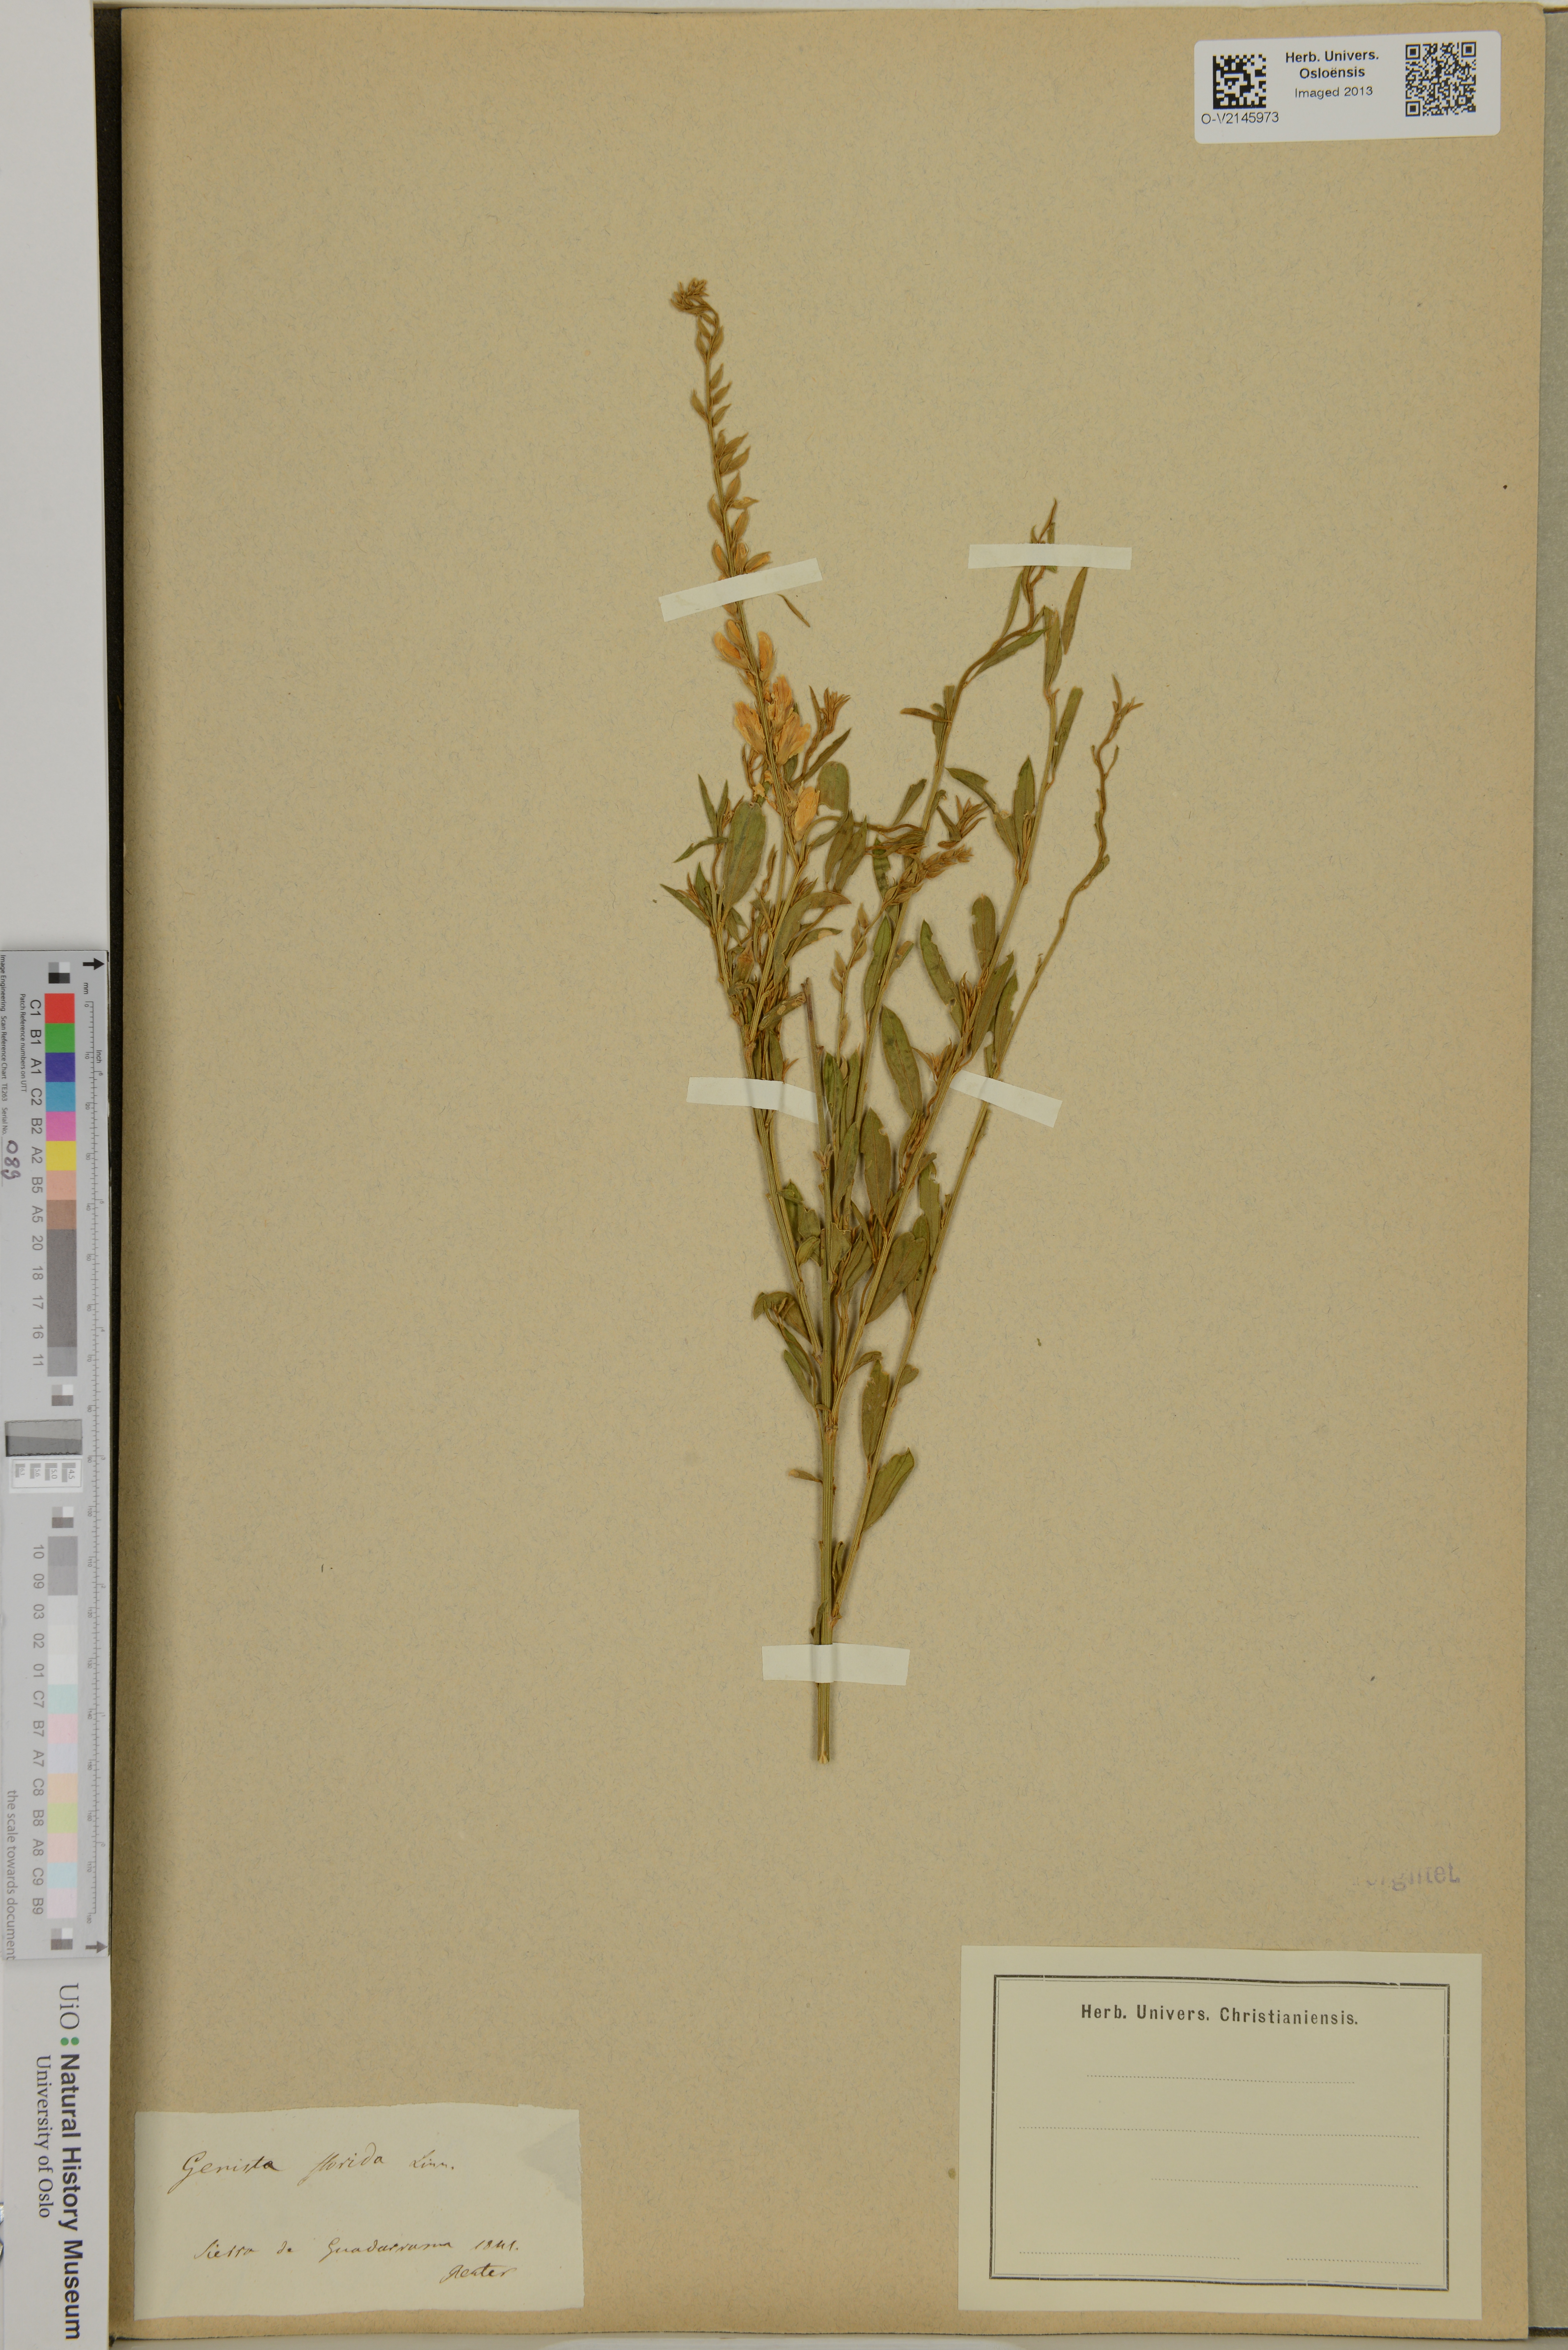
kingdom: Plantae
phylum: Tracheophyta
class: Magnoliopsida
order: Fabales
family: Fabaceae
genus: Genista
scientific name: Genista florida
